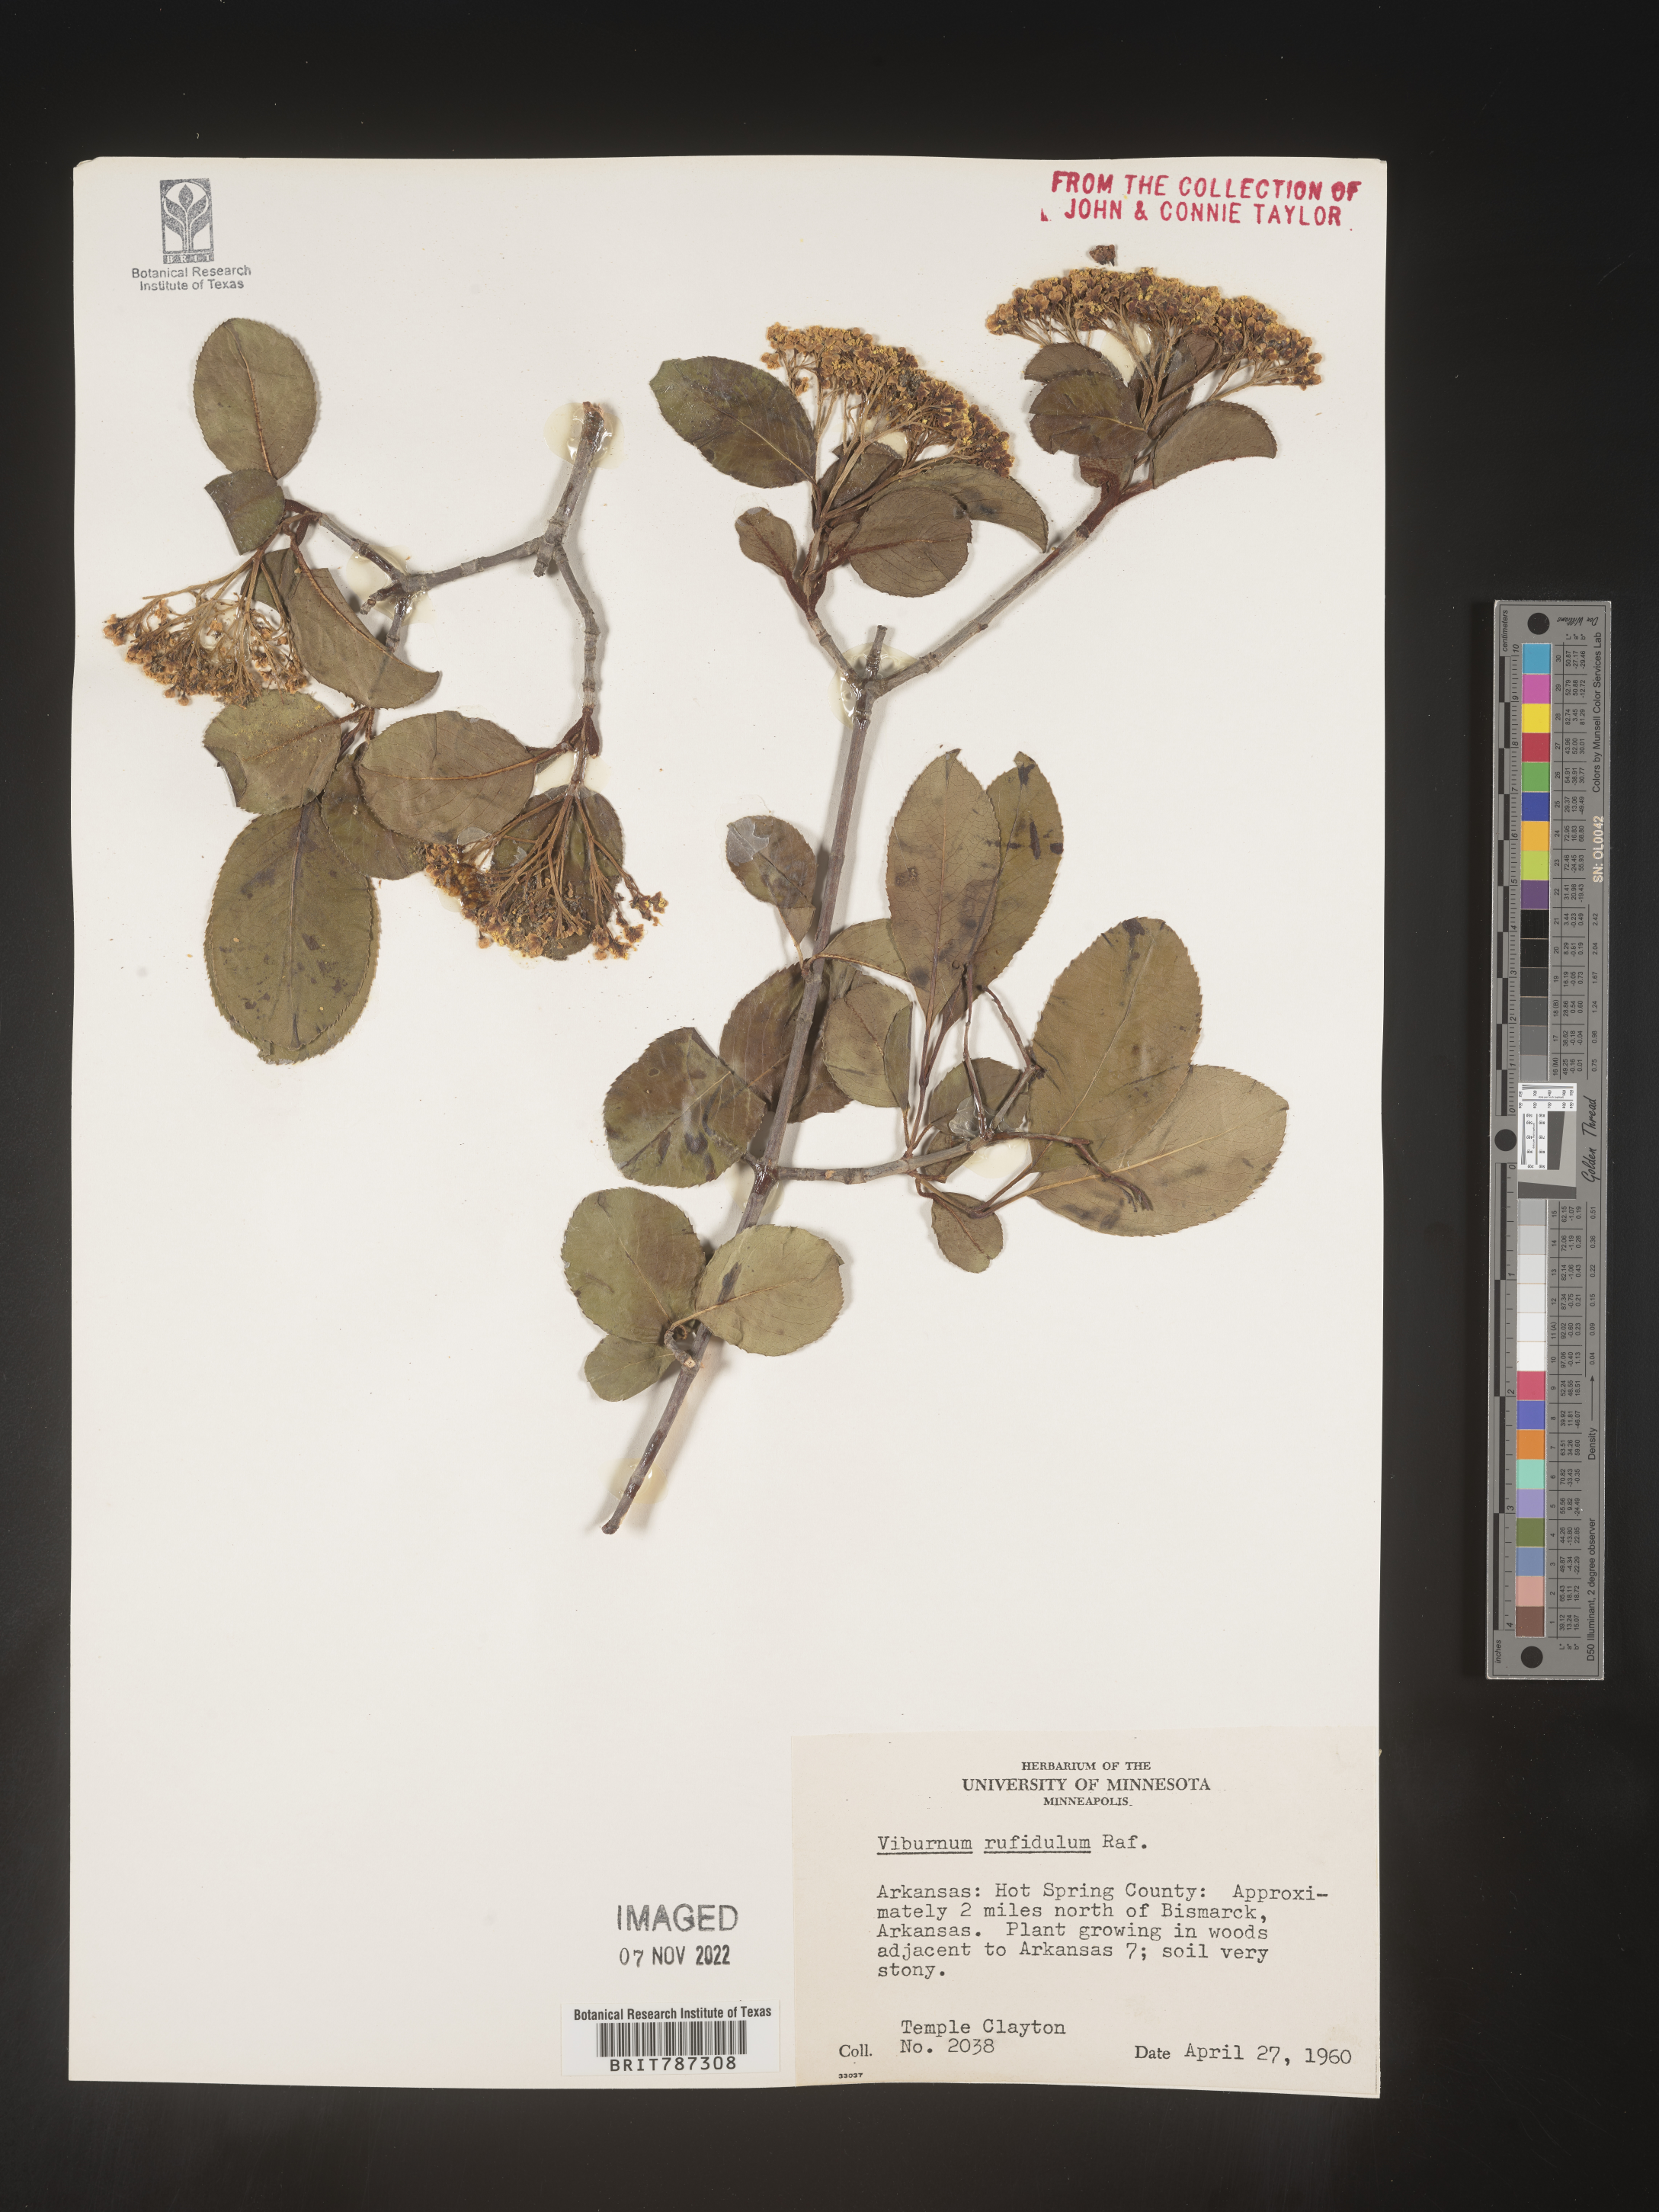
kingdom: Plantae
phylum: Tracheophyta
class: Magnoliopsida
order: Dipsacales
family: Viburnaceae
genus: Viburnum
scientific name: Viburnum rufidulum
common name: Blue haw
